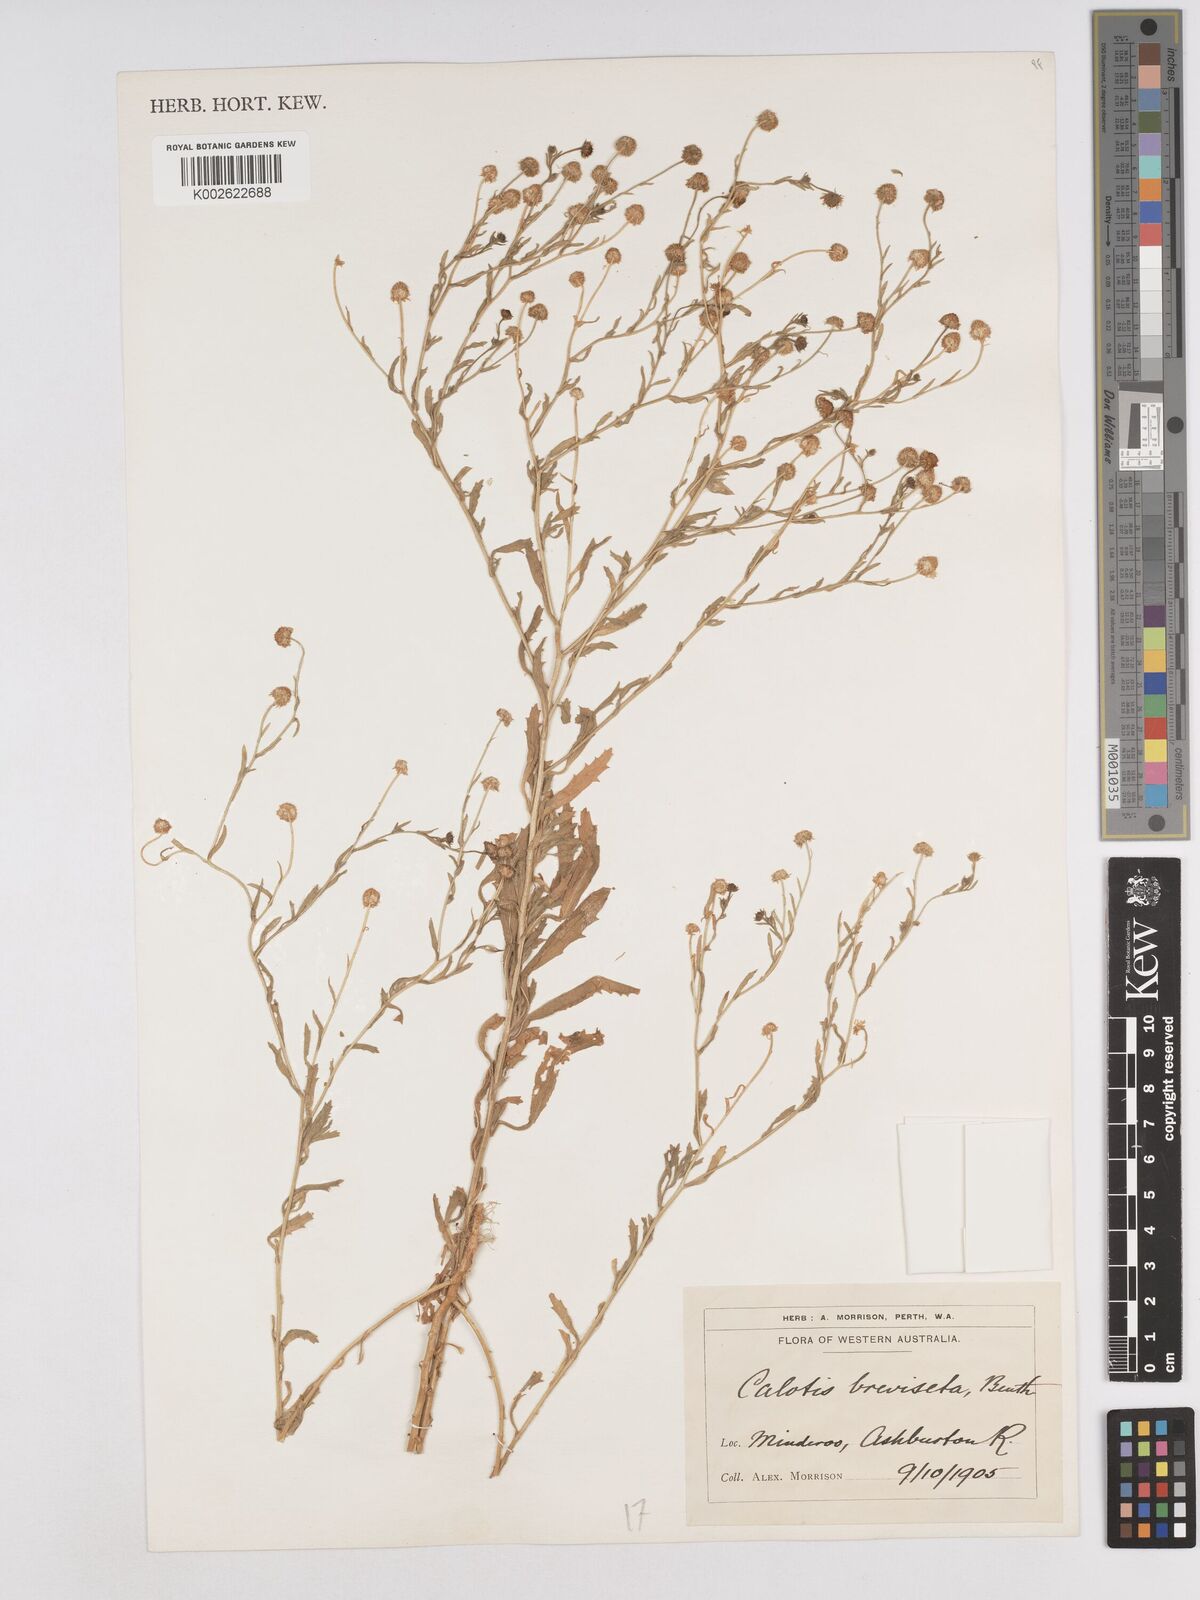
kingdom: Plantae
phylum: Tracheophyta
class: Magnoliopsida
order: Asterales
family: Asteraceae
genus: Calotis
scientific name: Calotis porphyroglossa
